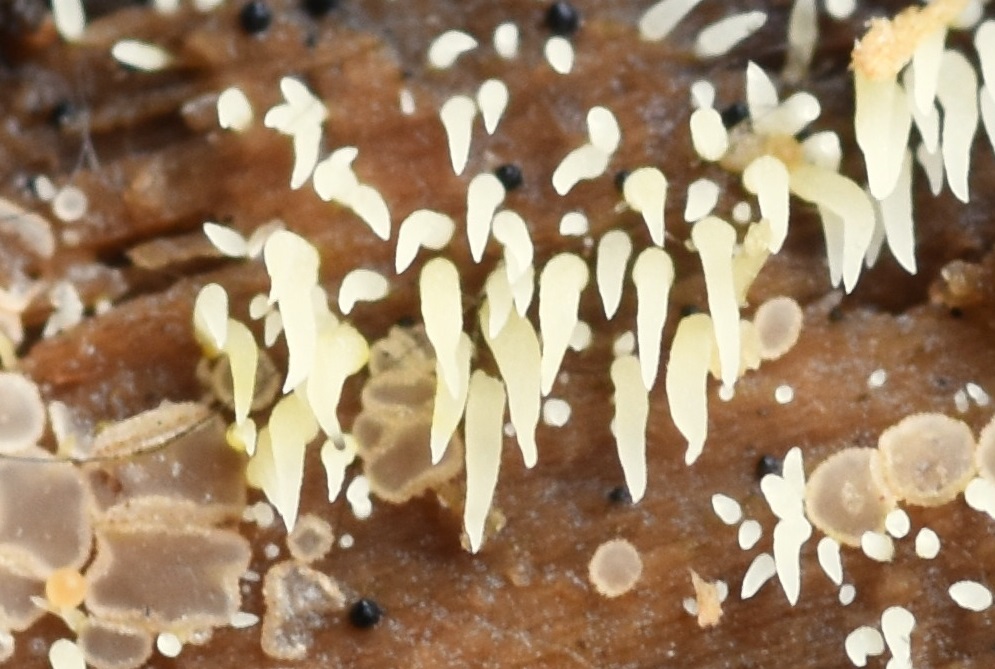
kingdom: Fungi
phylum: Basidiomycota
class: Agaricomycetes
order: Agaricales
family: Clavariaceae
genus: Mucronella
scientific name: Mucronella flava
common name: gul hængepig
